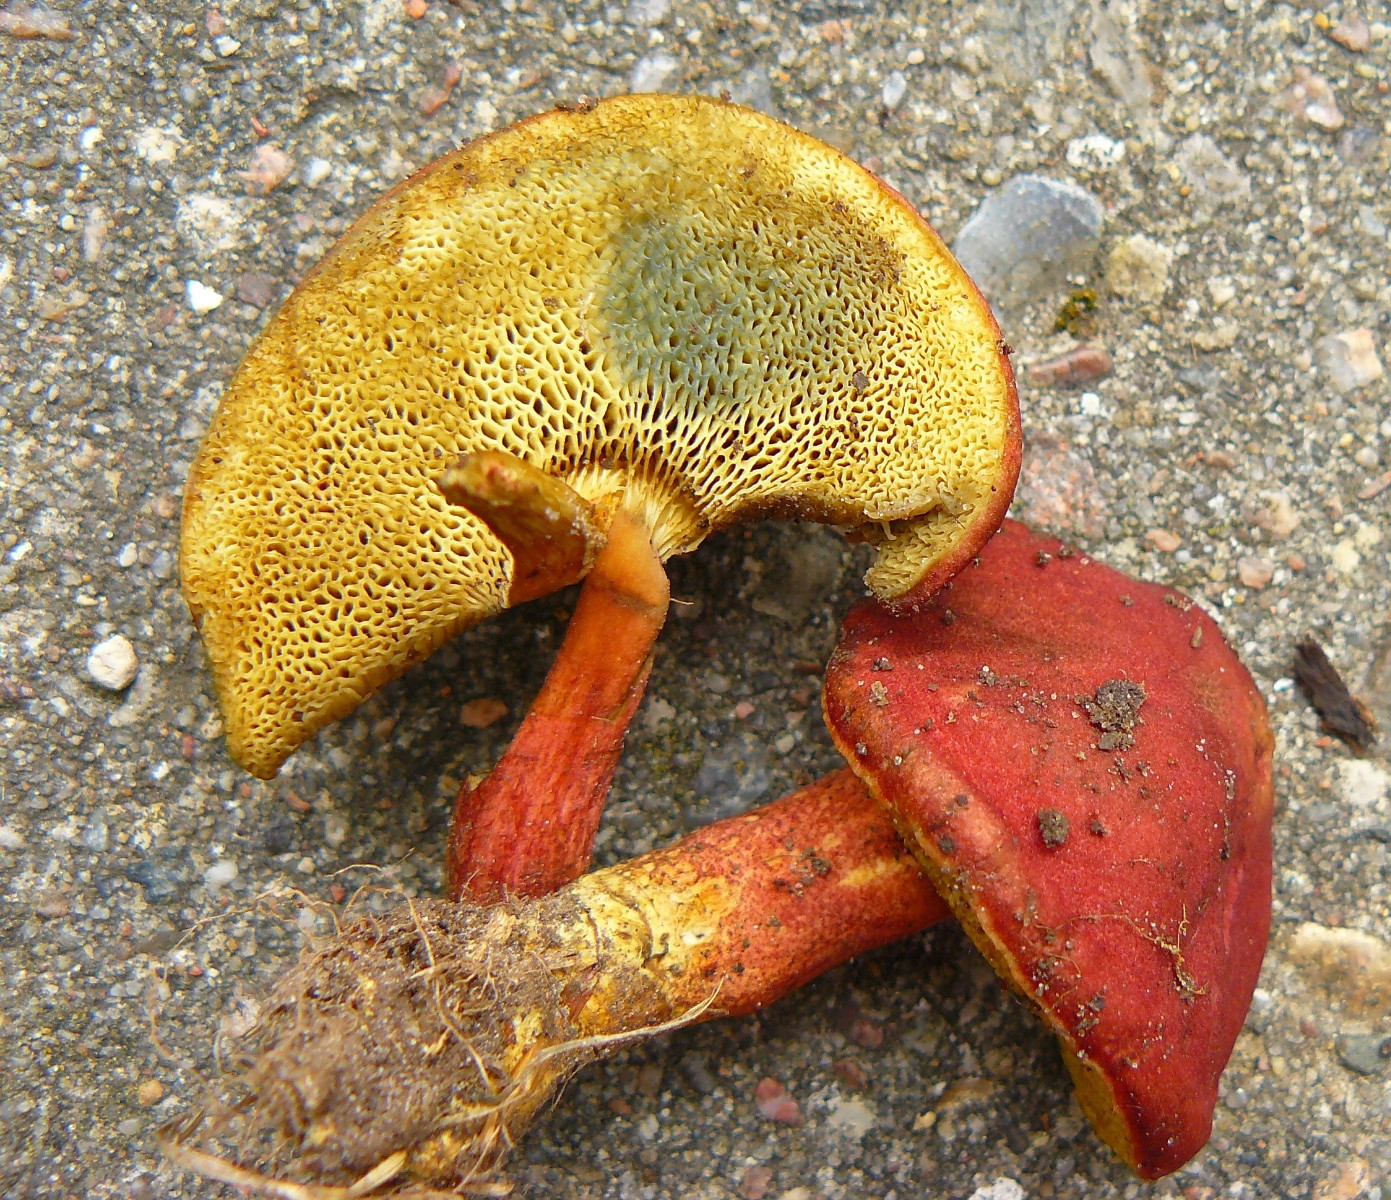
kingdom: Fungi
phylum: Basidiomycota
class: Agaricomycetes
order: Boletales
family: Boletaceae
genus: Hortiboletus
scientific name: Hortiboletus rubellus
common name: blodrød rørhat
